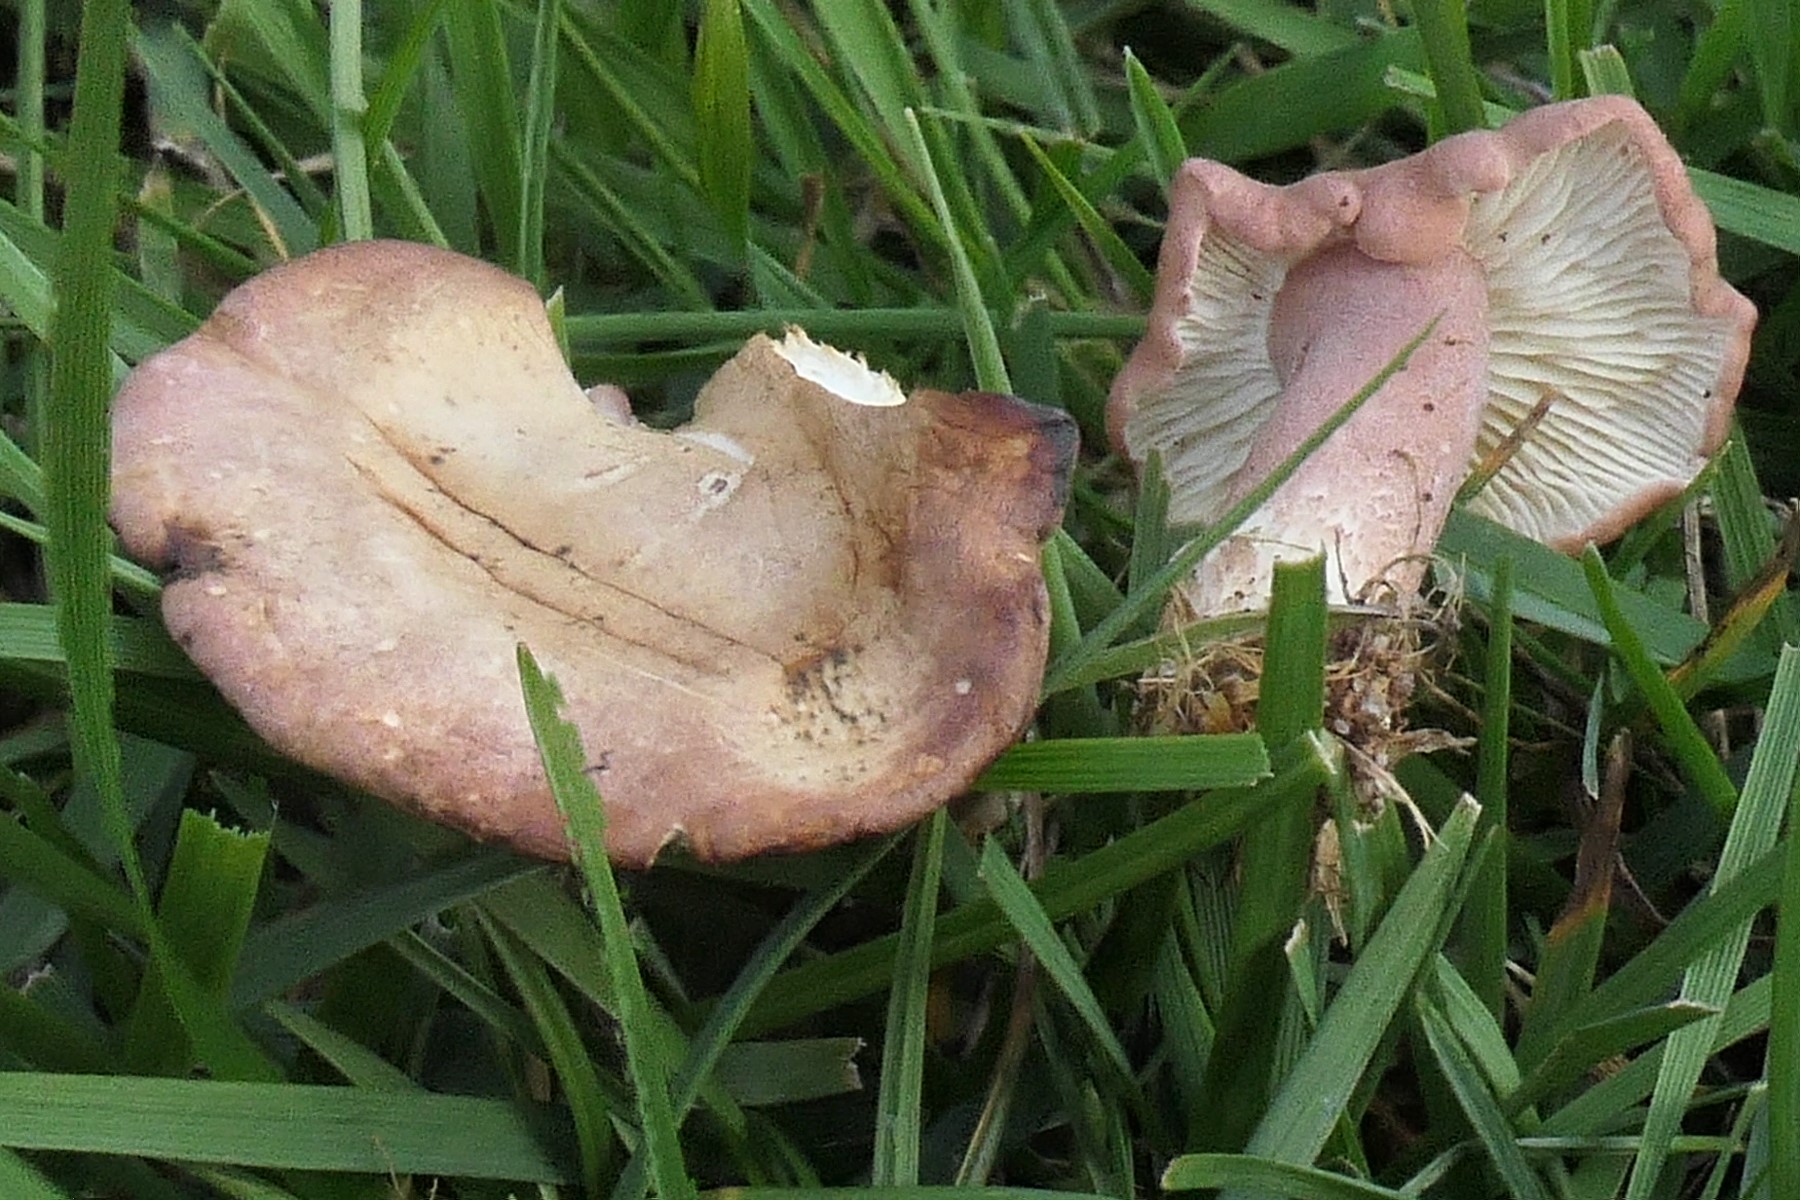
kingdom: Fungi
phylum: Basidiomycota
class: Agaricomycetes
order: Agaricales
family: Lyophyllaceae
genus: Calocybe
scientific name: Calocybe carnea
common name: rosa fagerhat
